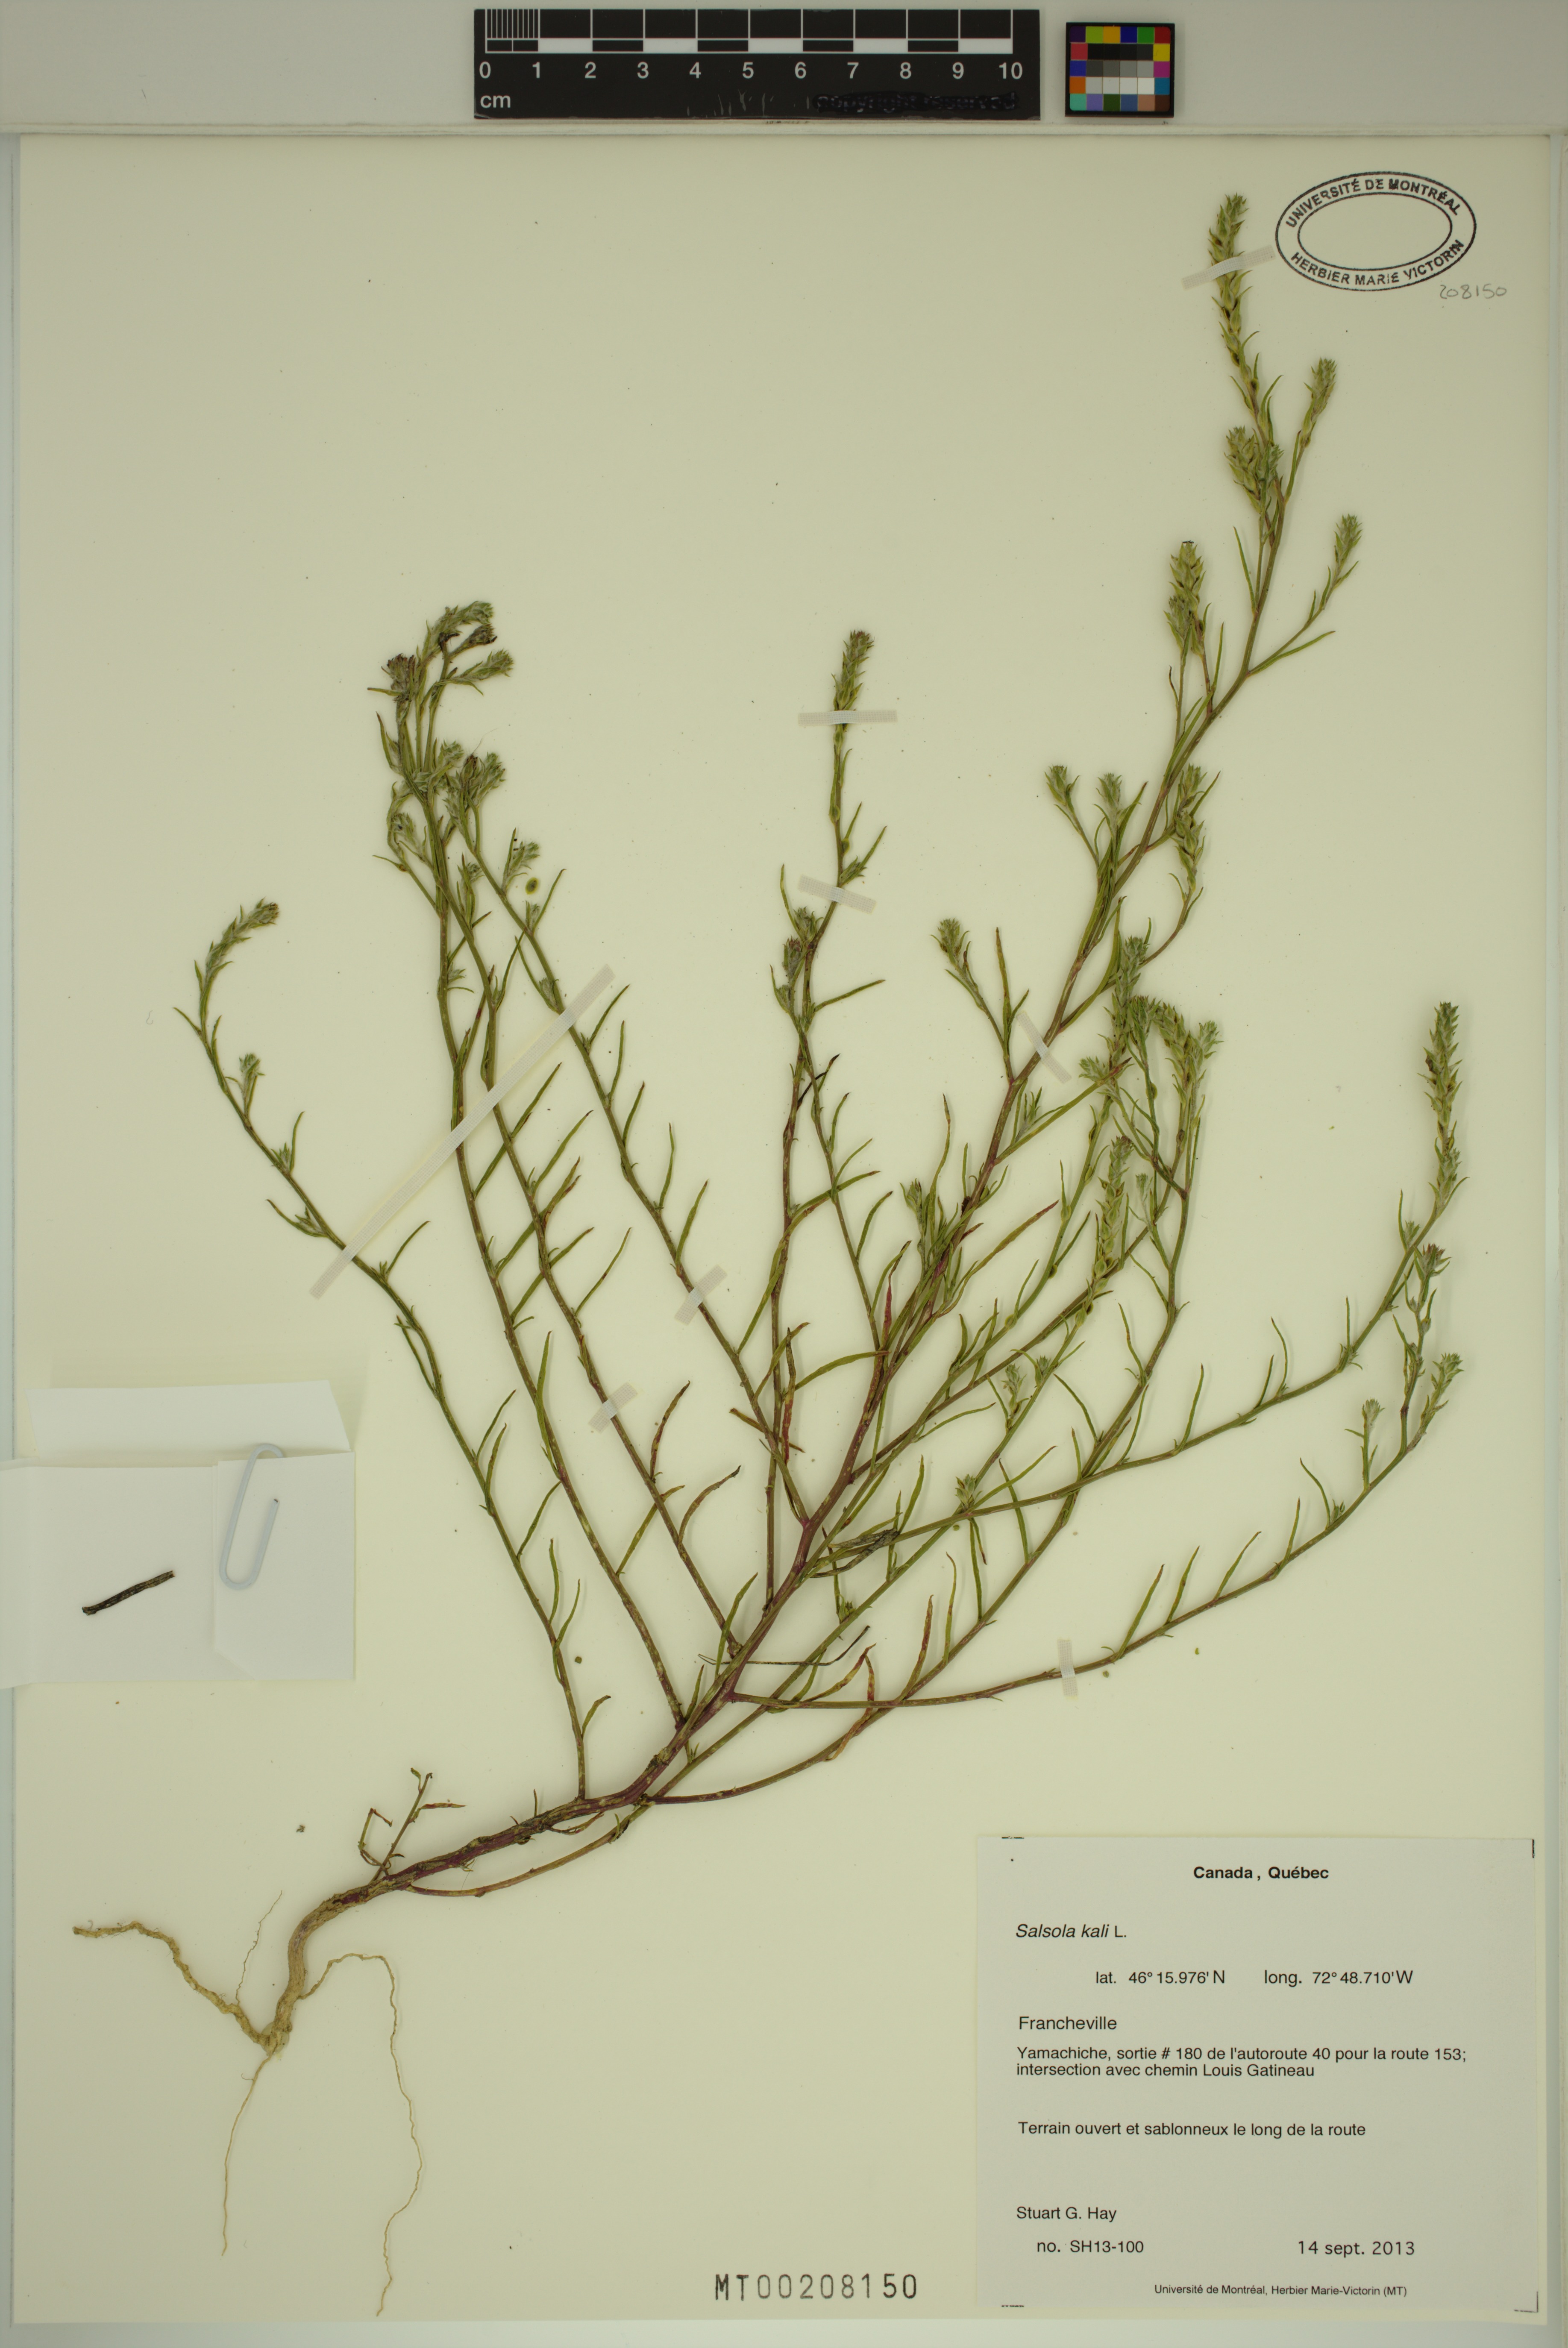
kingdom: Plantae
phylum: Tracheophyta
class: Magnoliopsida
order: Caryophyllales
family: Amaranthaceae
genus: Salsola
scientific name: Salsola kali
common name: Saltwort
